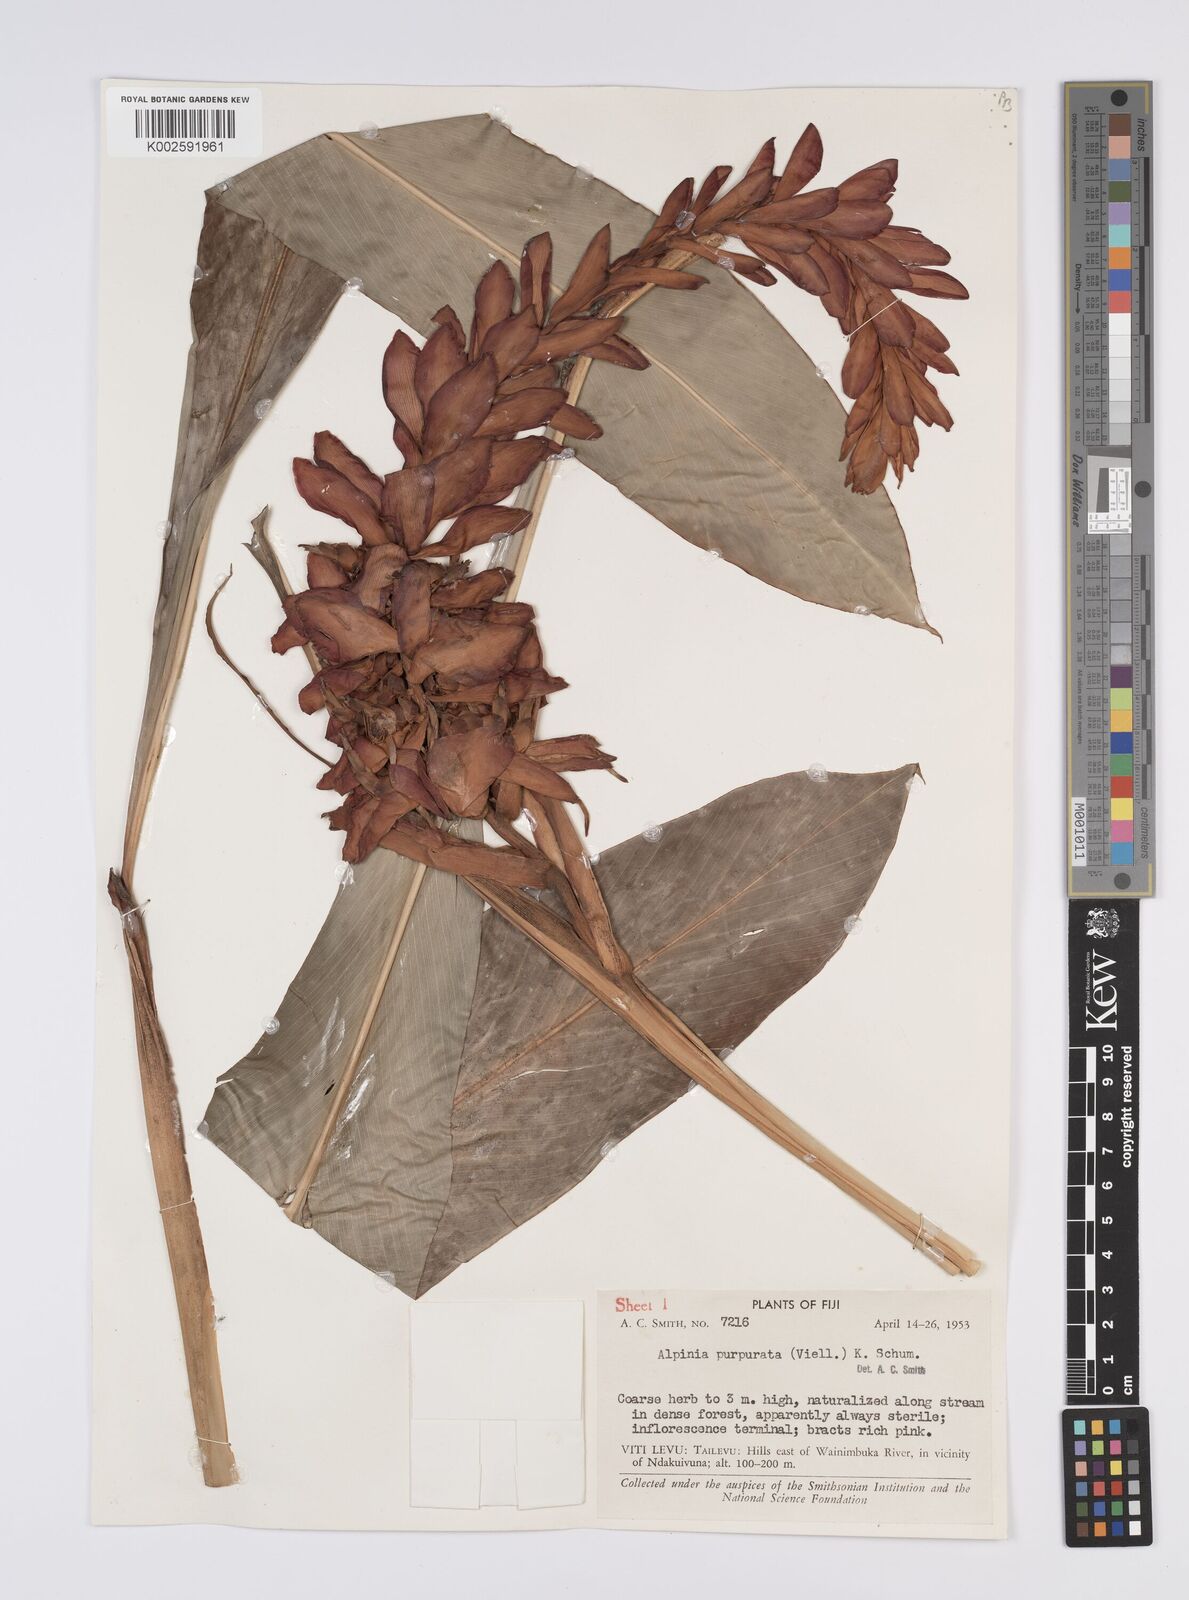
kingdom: Plantae
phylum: Tracheophyta
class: Liliopsida
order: Zingiberales
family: Zingiberaceae
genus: Alpinia
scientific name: Alpinia purpurata
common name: Red ginger
